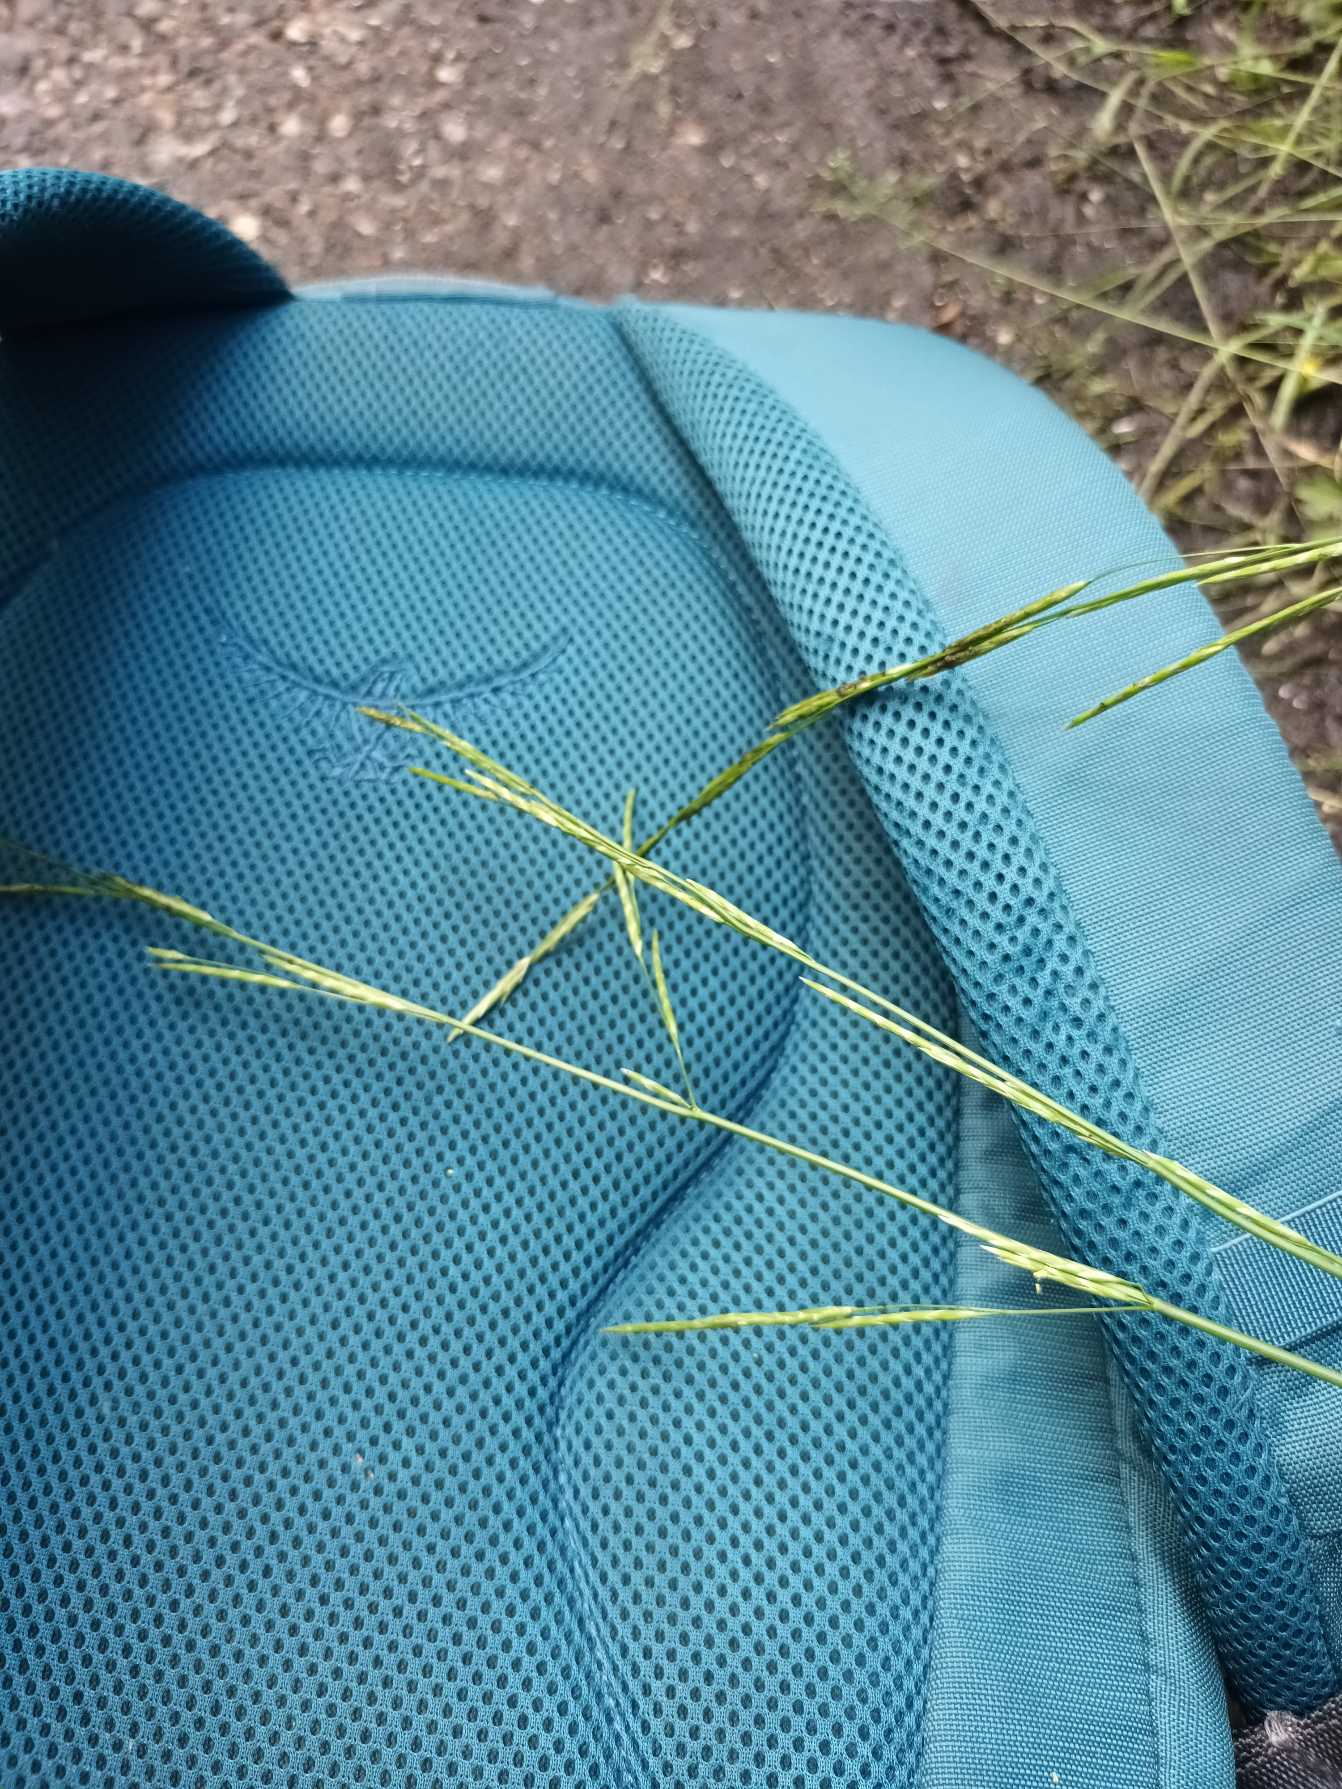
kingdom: Plantae
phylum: Tracheophyta
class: Liliopsida
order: Poales
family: Poaceae
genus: Glyceria
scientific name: Glyceria fluitans
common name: Manna-sødgræs
